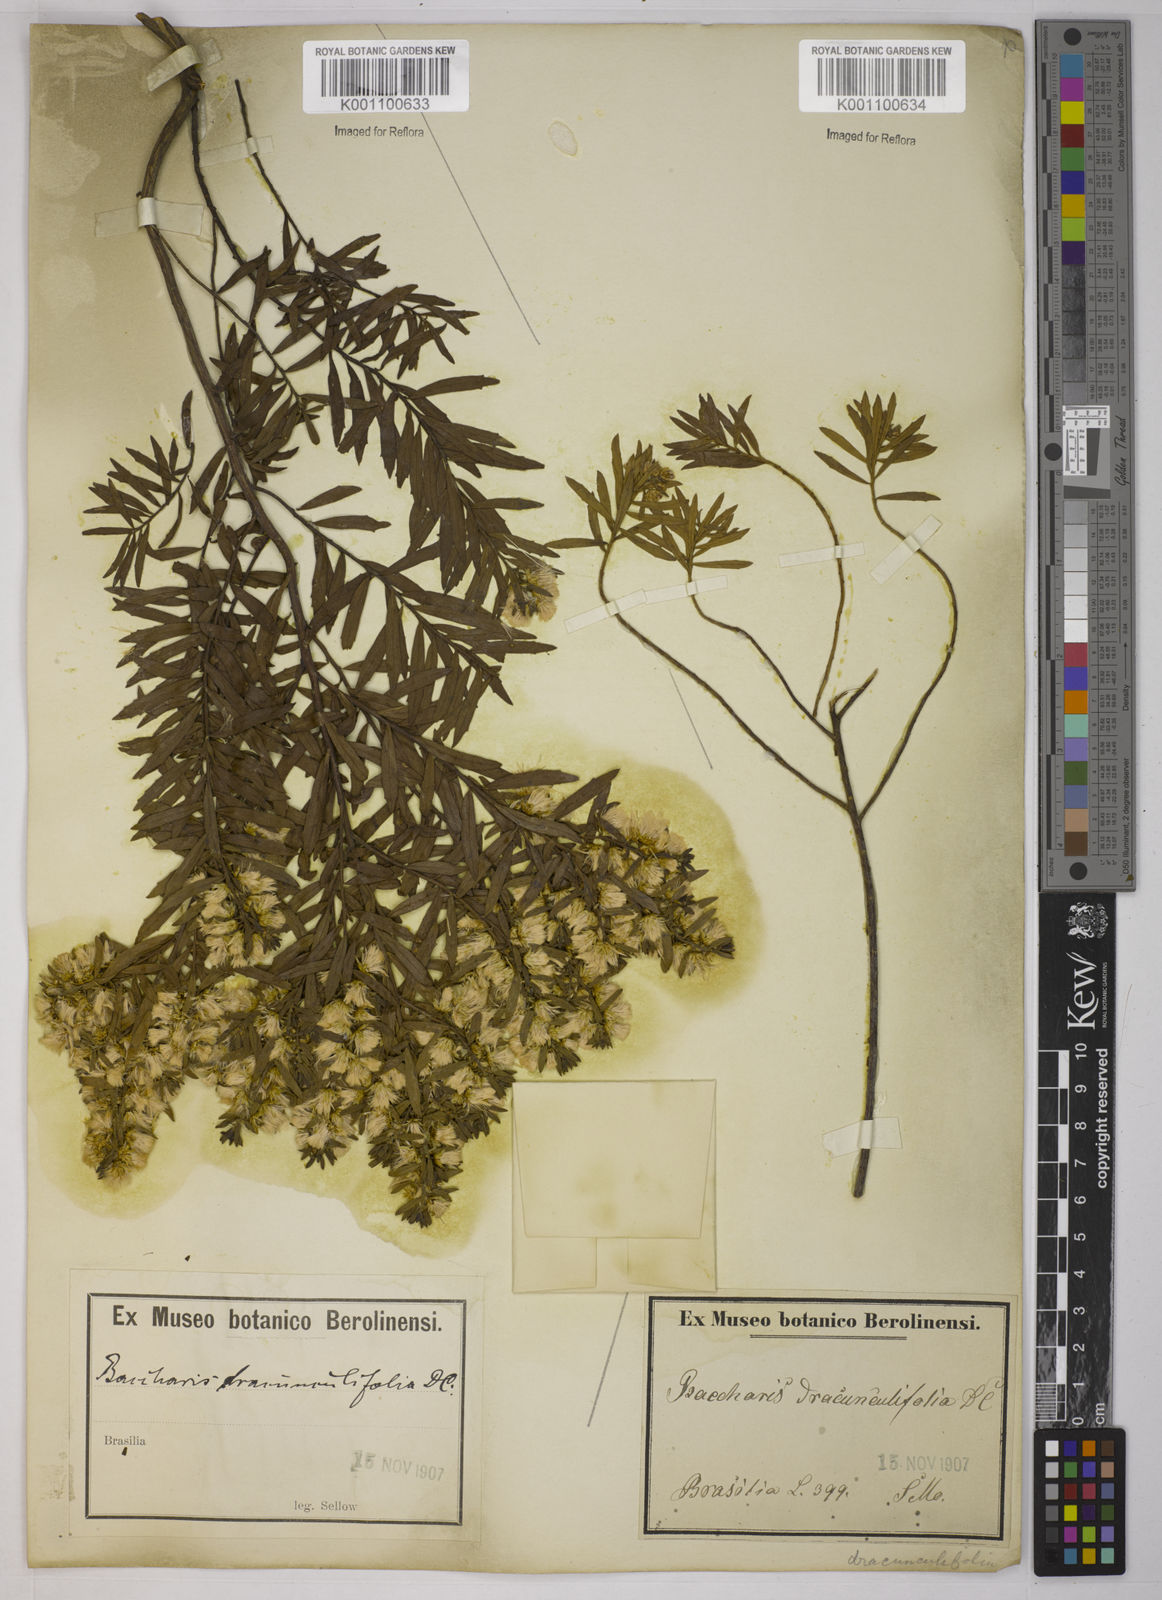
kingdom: Plantae
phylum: Tracheophyta
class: Magnoliopsida
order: Asterales
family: Asteraceae
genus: Baccharis
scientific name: Baccharis dracunculifolia
